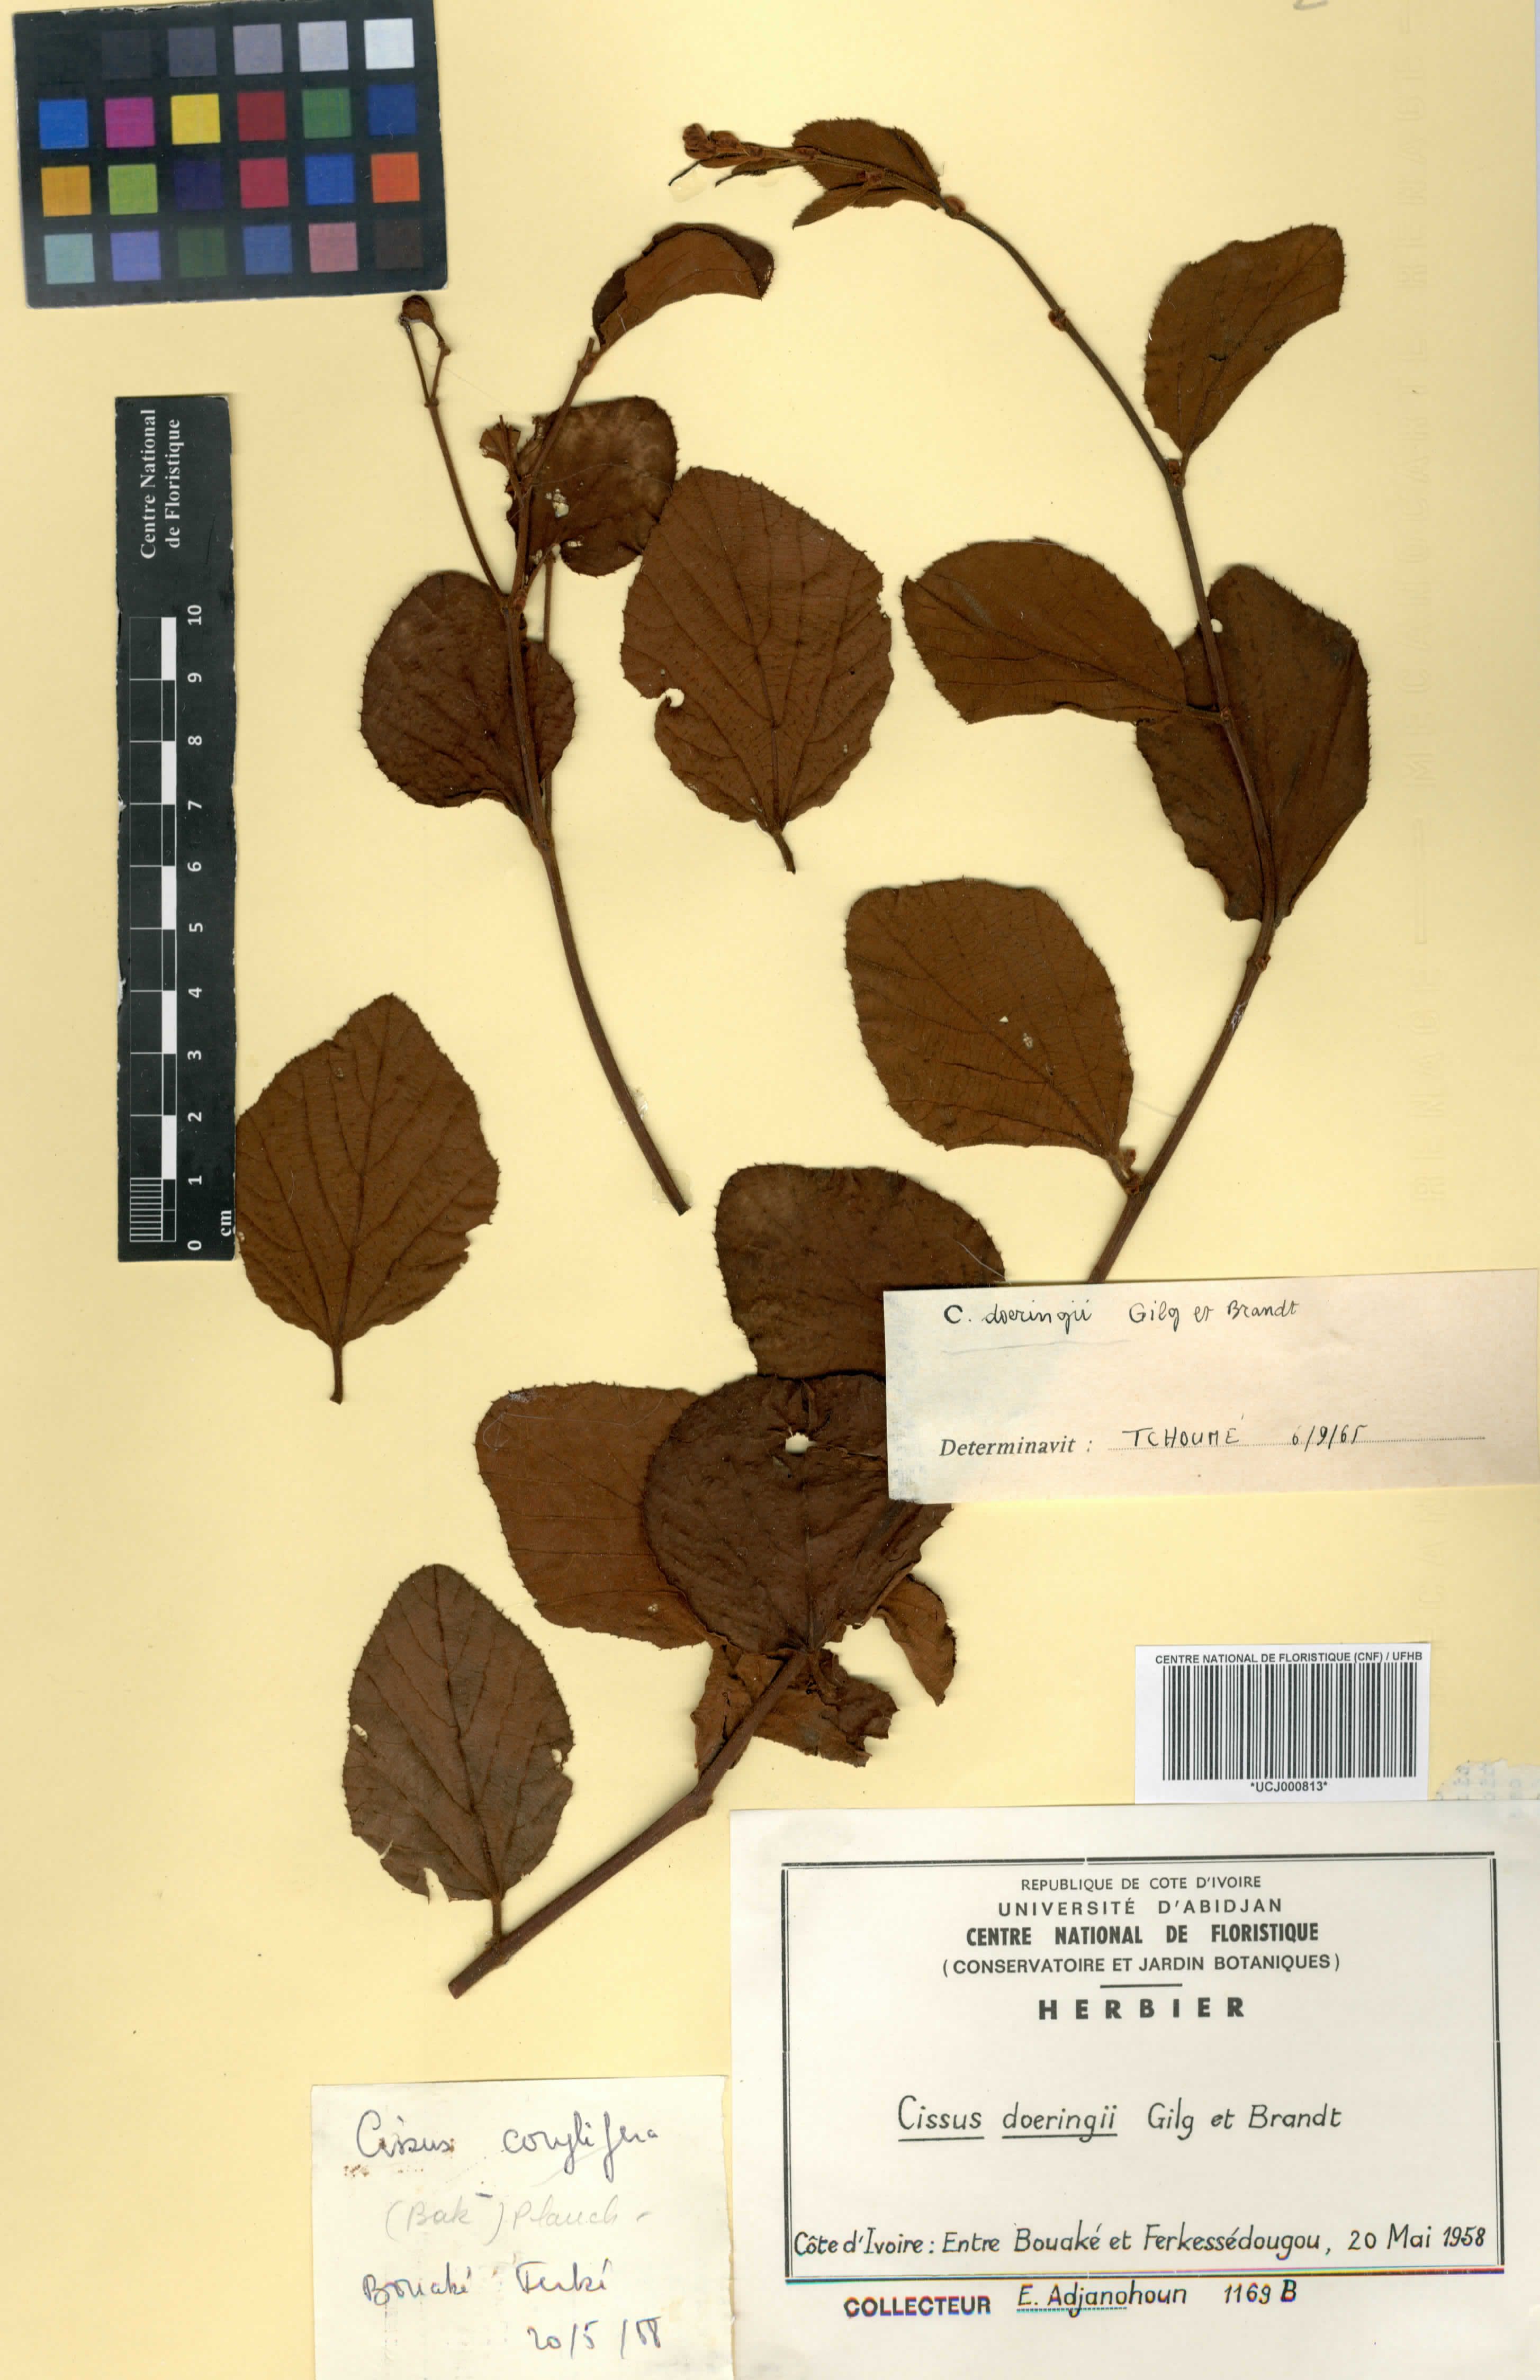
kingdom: Plantae
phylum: Tracheophyta
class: Magnoliopsida
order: Vitales
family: Vitaceae
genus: Cissus
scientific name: Cissus doeringii
